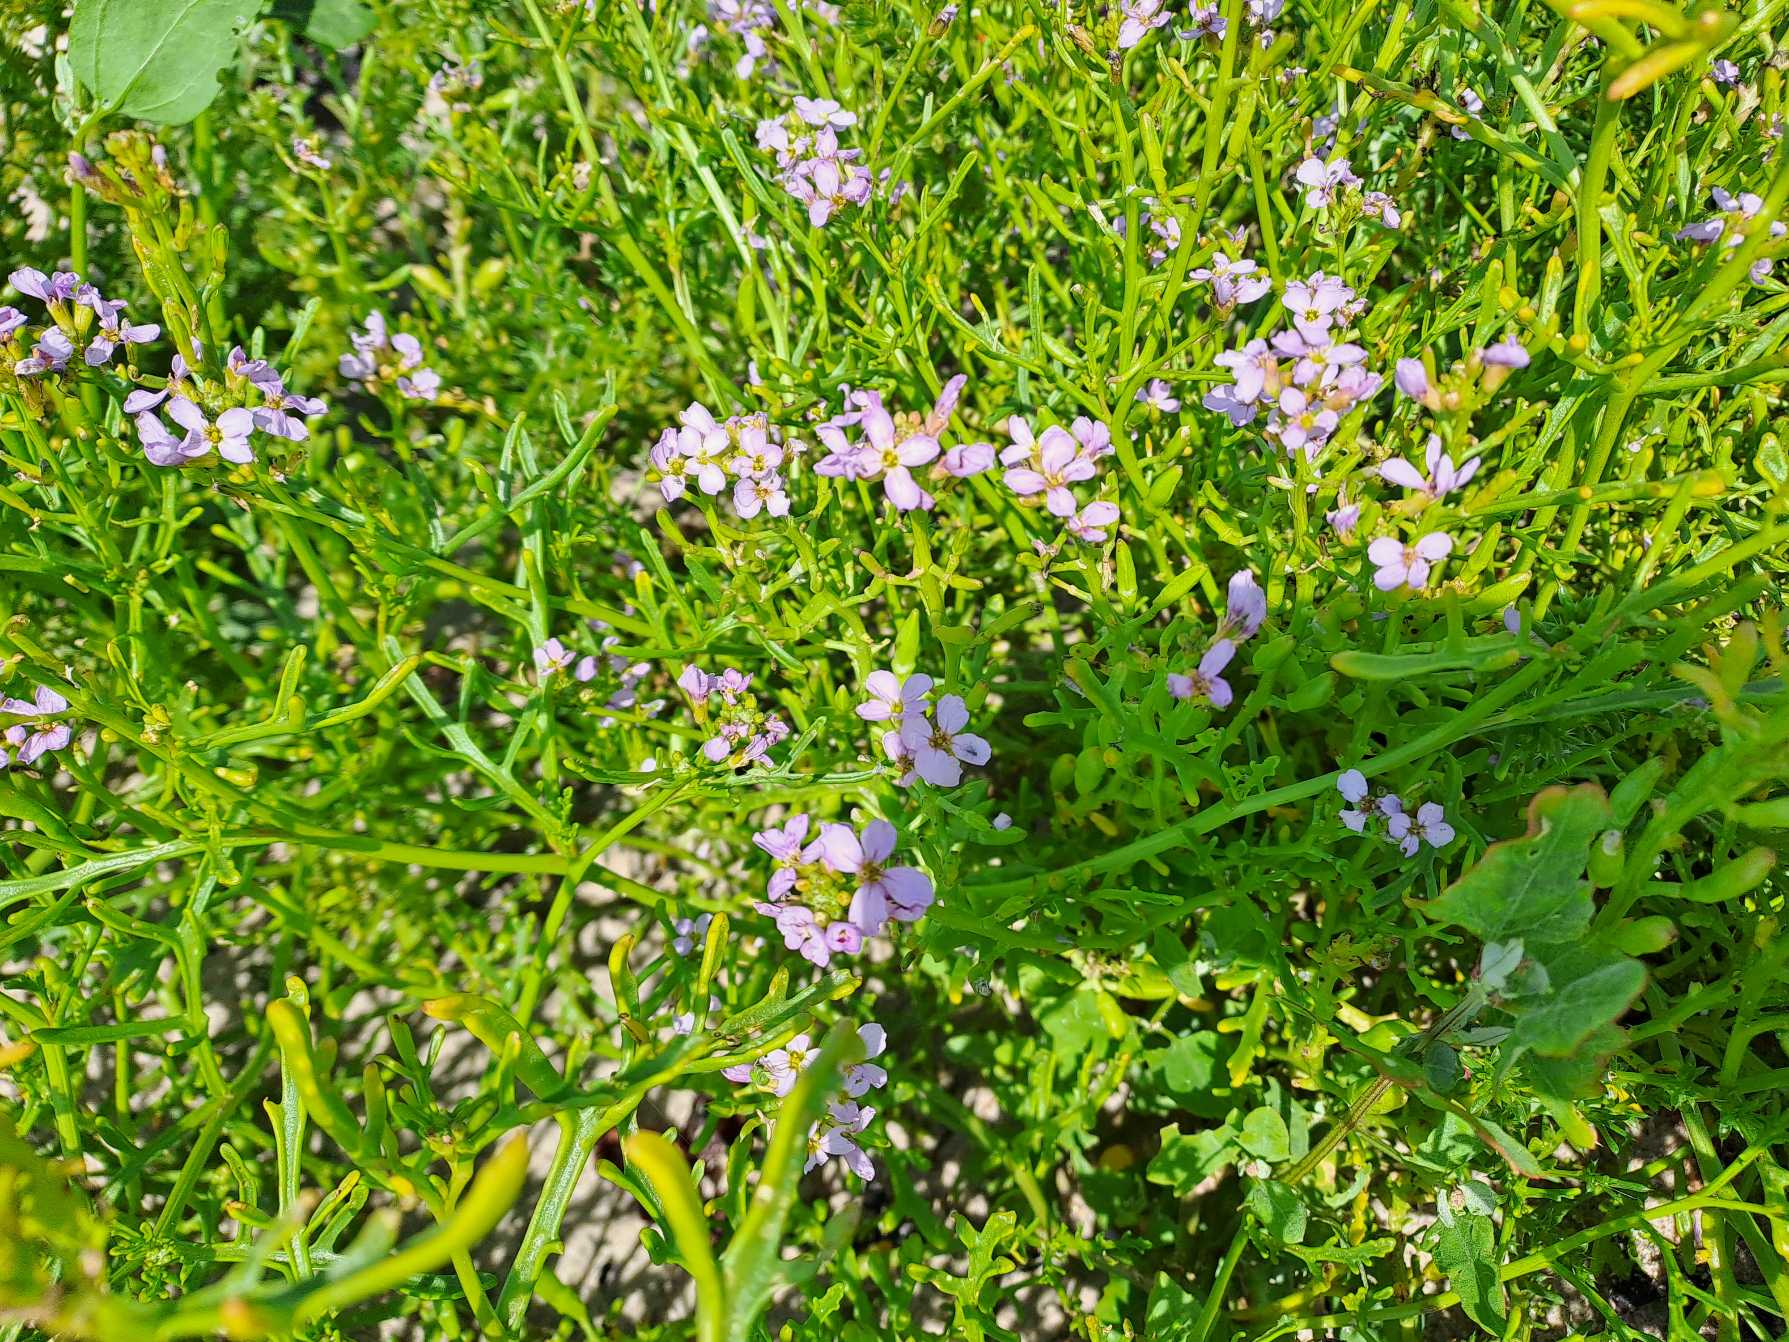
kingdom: Plantae
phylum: Tracheophyta
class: Magnoliopsida
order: Brassicales
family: Brassicaceae
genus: Cakile
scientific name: Cakile maritima
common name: Strandsennep
